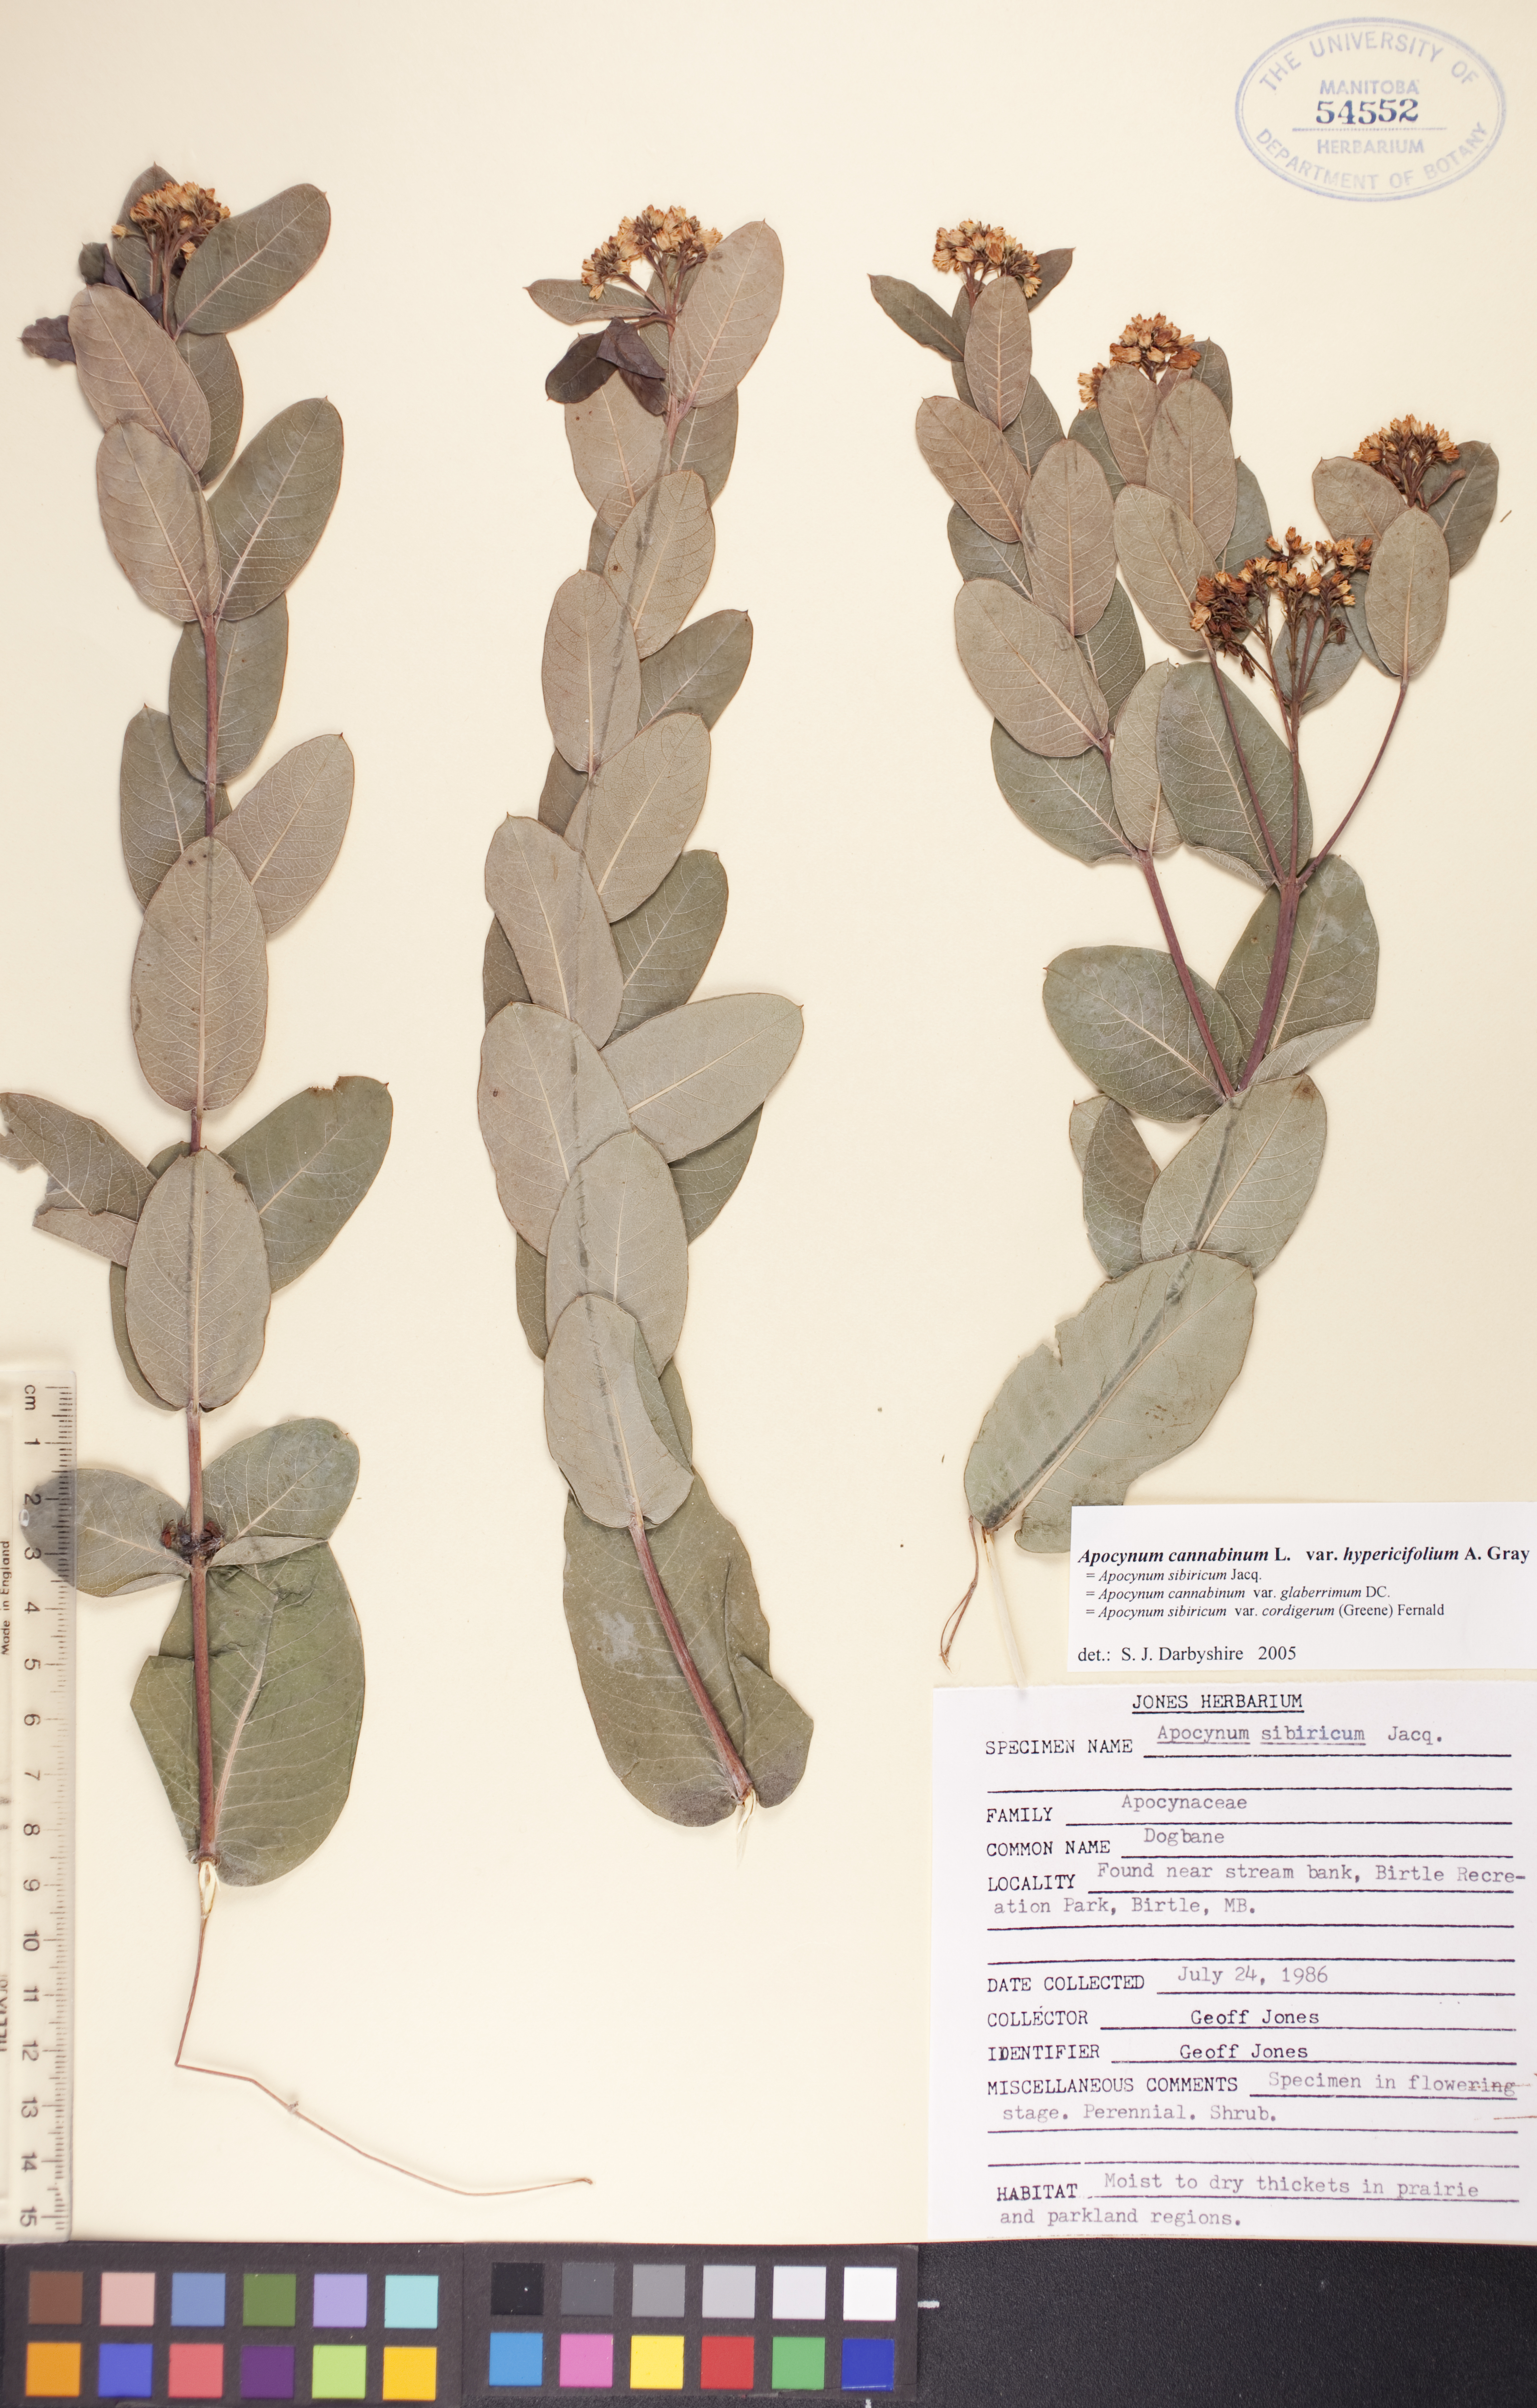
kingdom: Plantae
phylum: Tracheophyta
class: Magnoliopsida
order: Gentianales
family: Apocynaceae
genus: Apocynum
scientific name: Apocynum cannabinum
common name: Hemp dogbane
